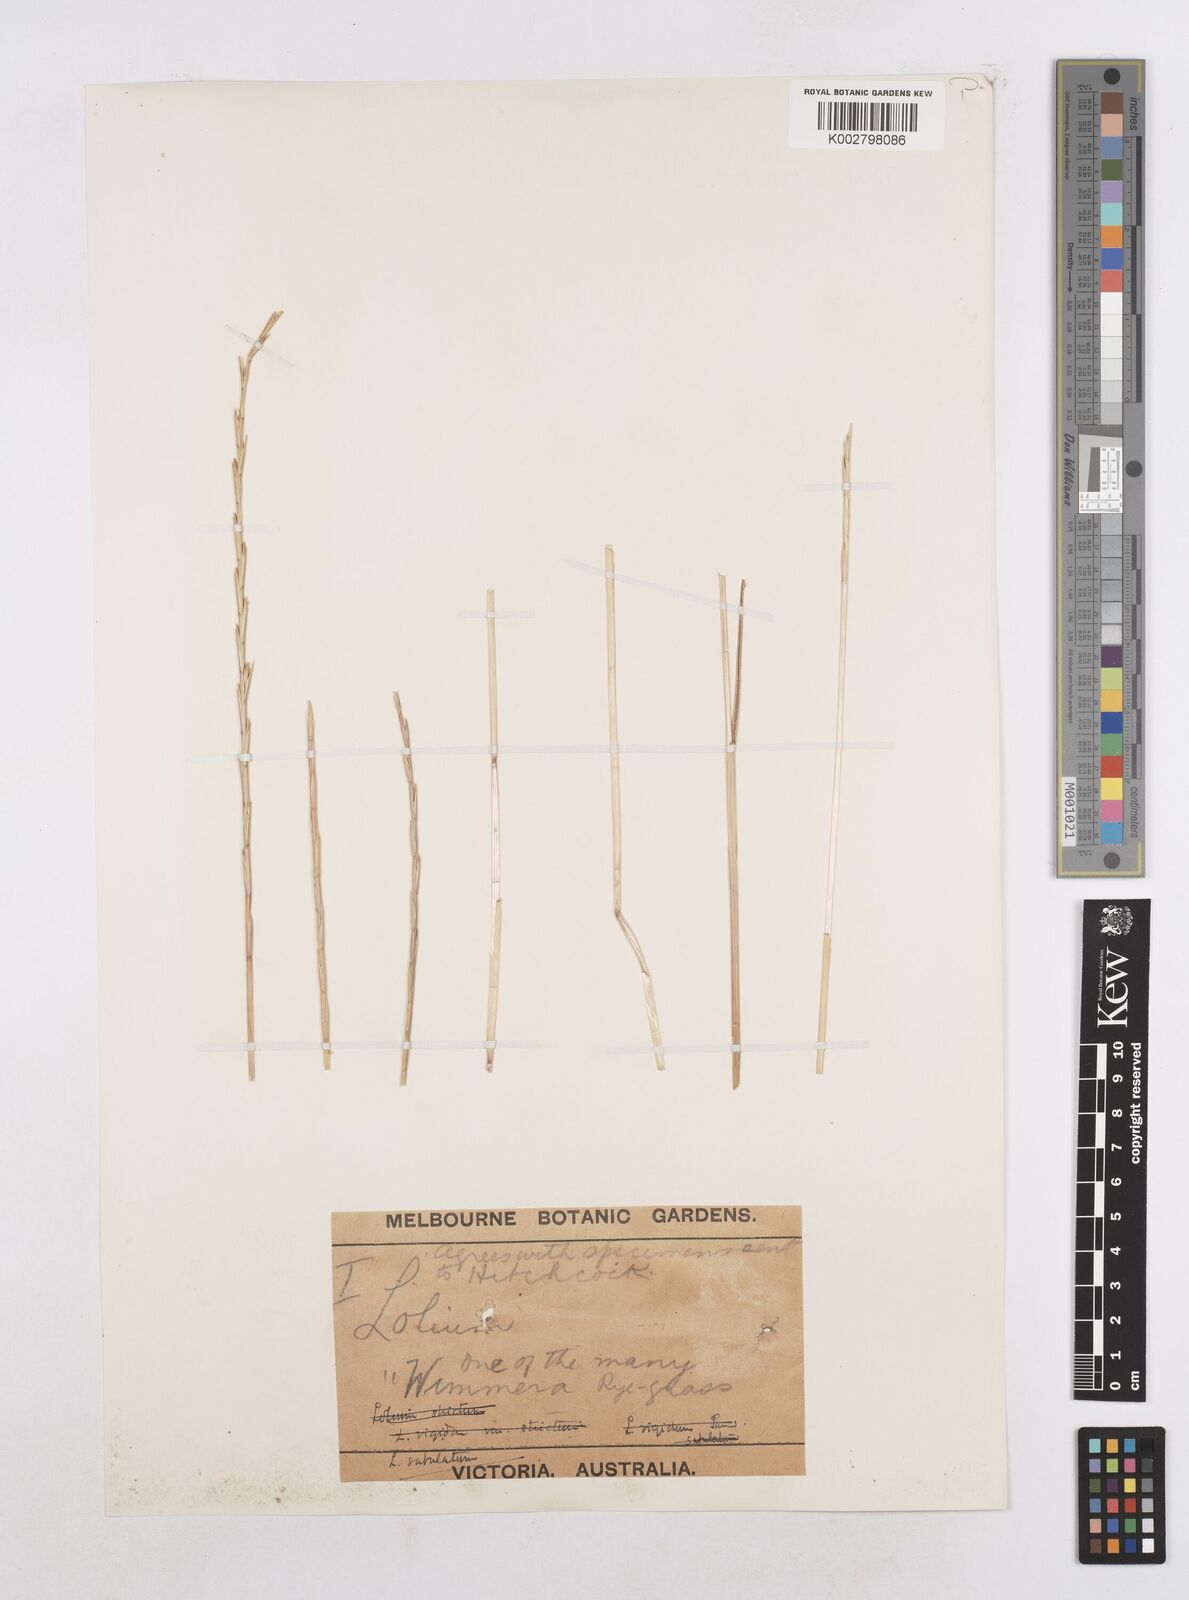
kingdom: Plantae
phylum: Tracheophyta
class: Liliopsida
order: Poales
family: Poaceae
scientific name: Poaceae
